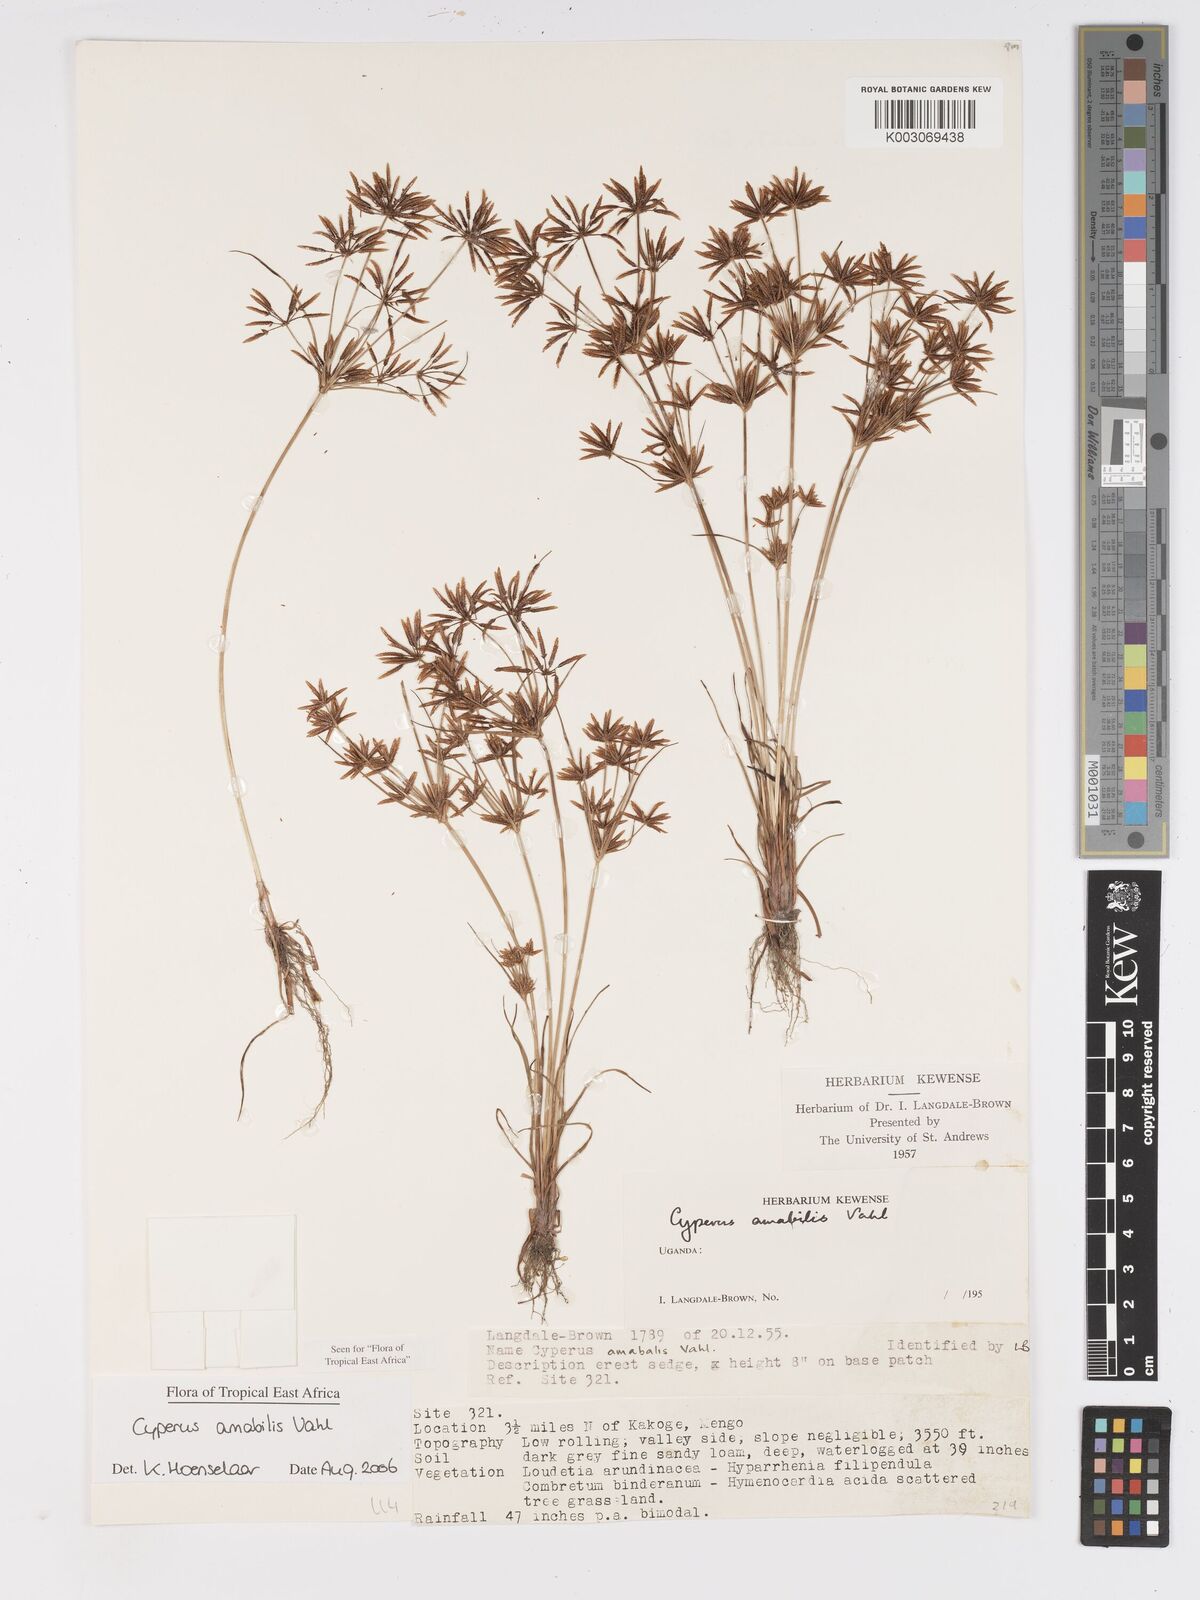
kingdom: Plantae
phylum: Tracheophyta
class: Liliopsida
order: Poales
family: Cyperaceae
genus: Cyperus
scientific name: Cyperus amabilis
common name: Foothill flat sedge
